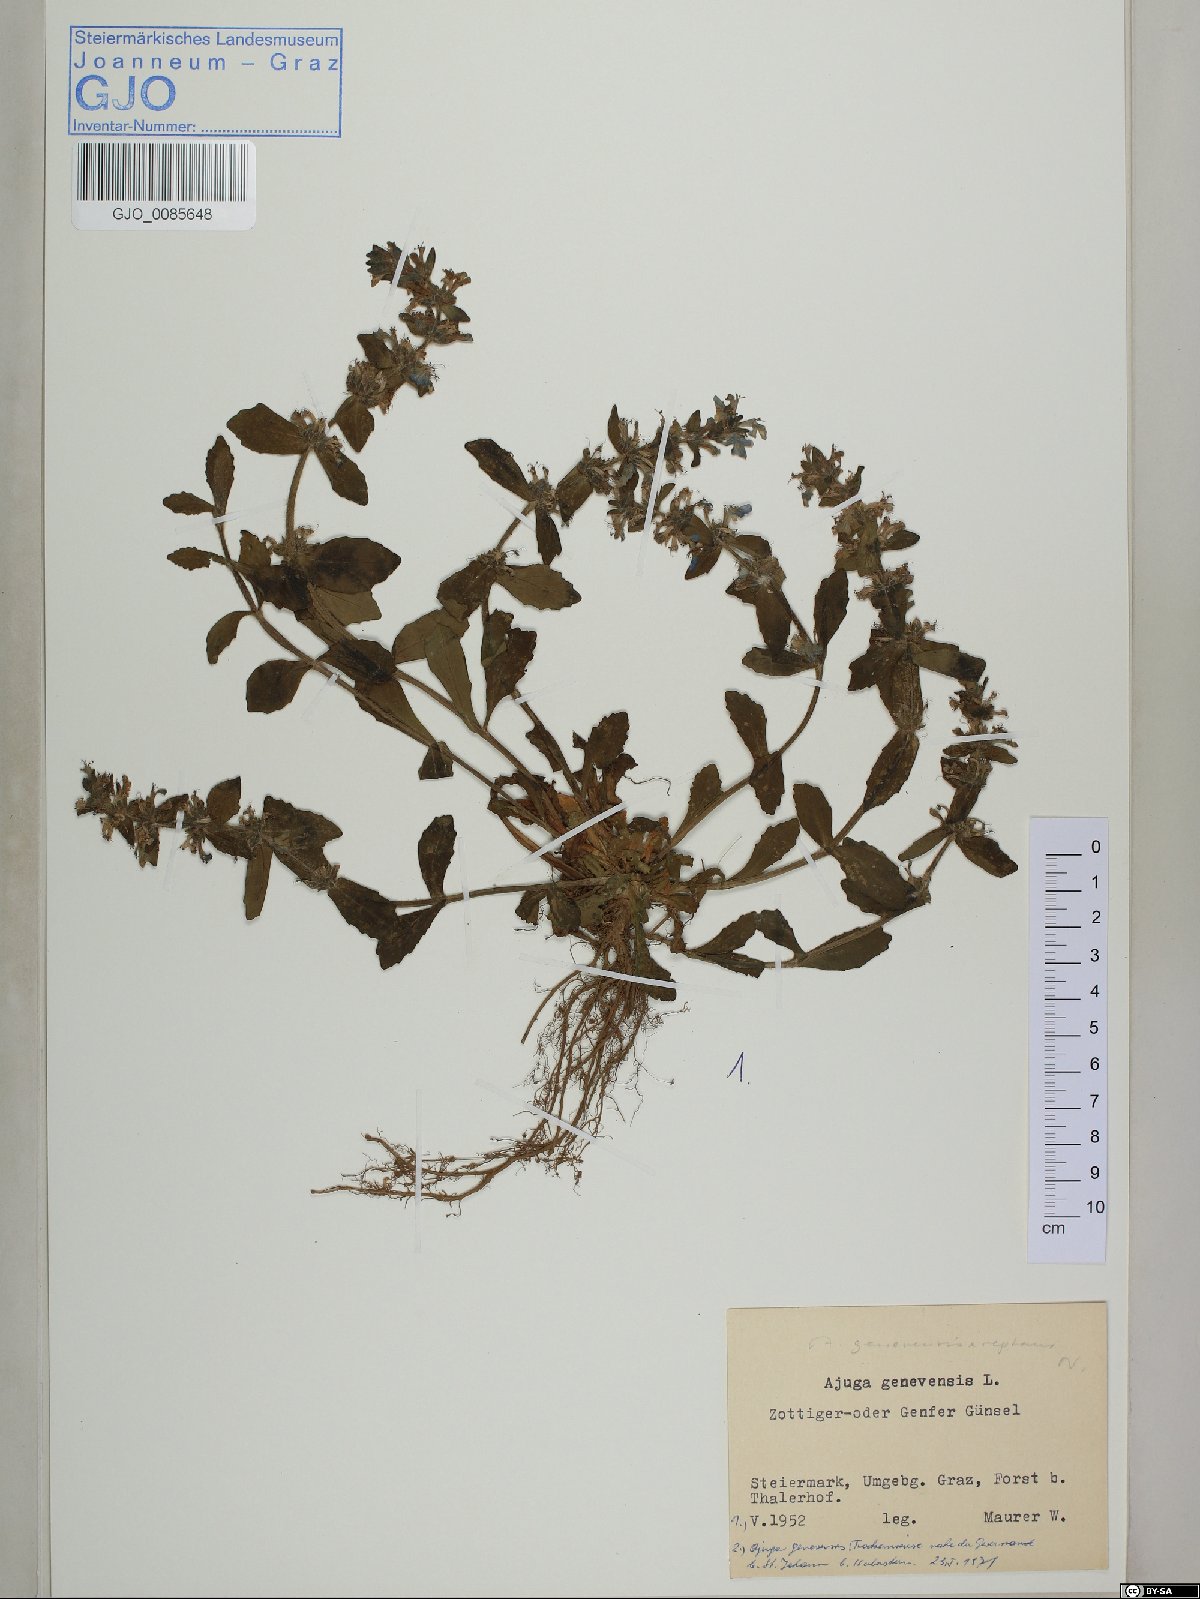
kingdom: Plantae
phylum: Tracheophyta
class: Magnoliopsida
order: Lamiales
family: Lamiaceae
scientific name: Lamiaceae
